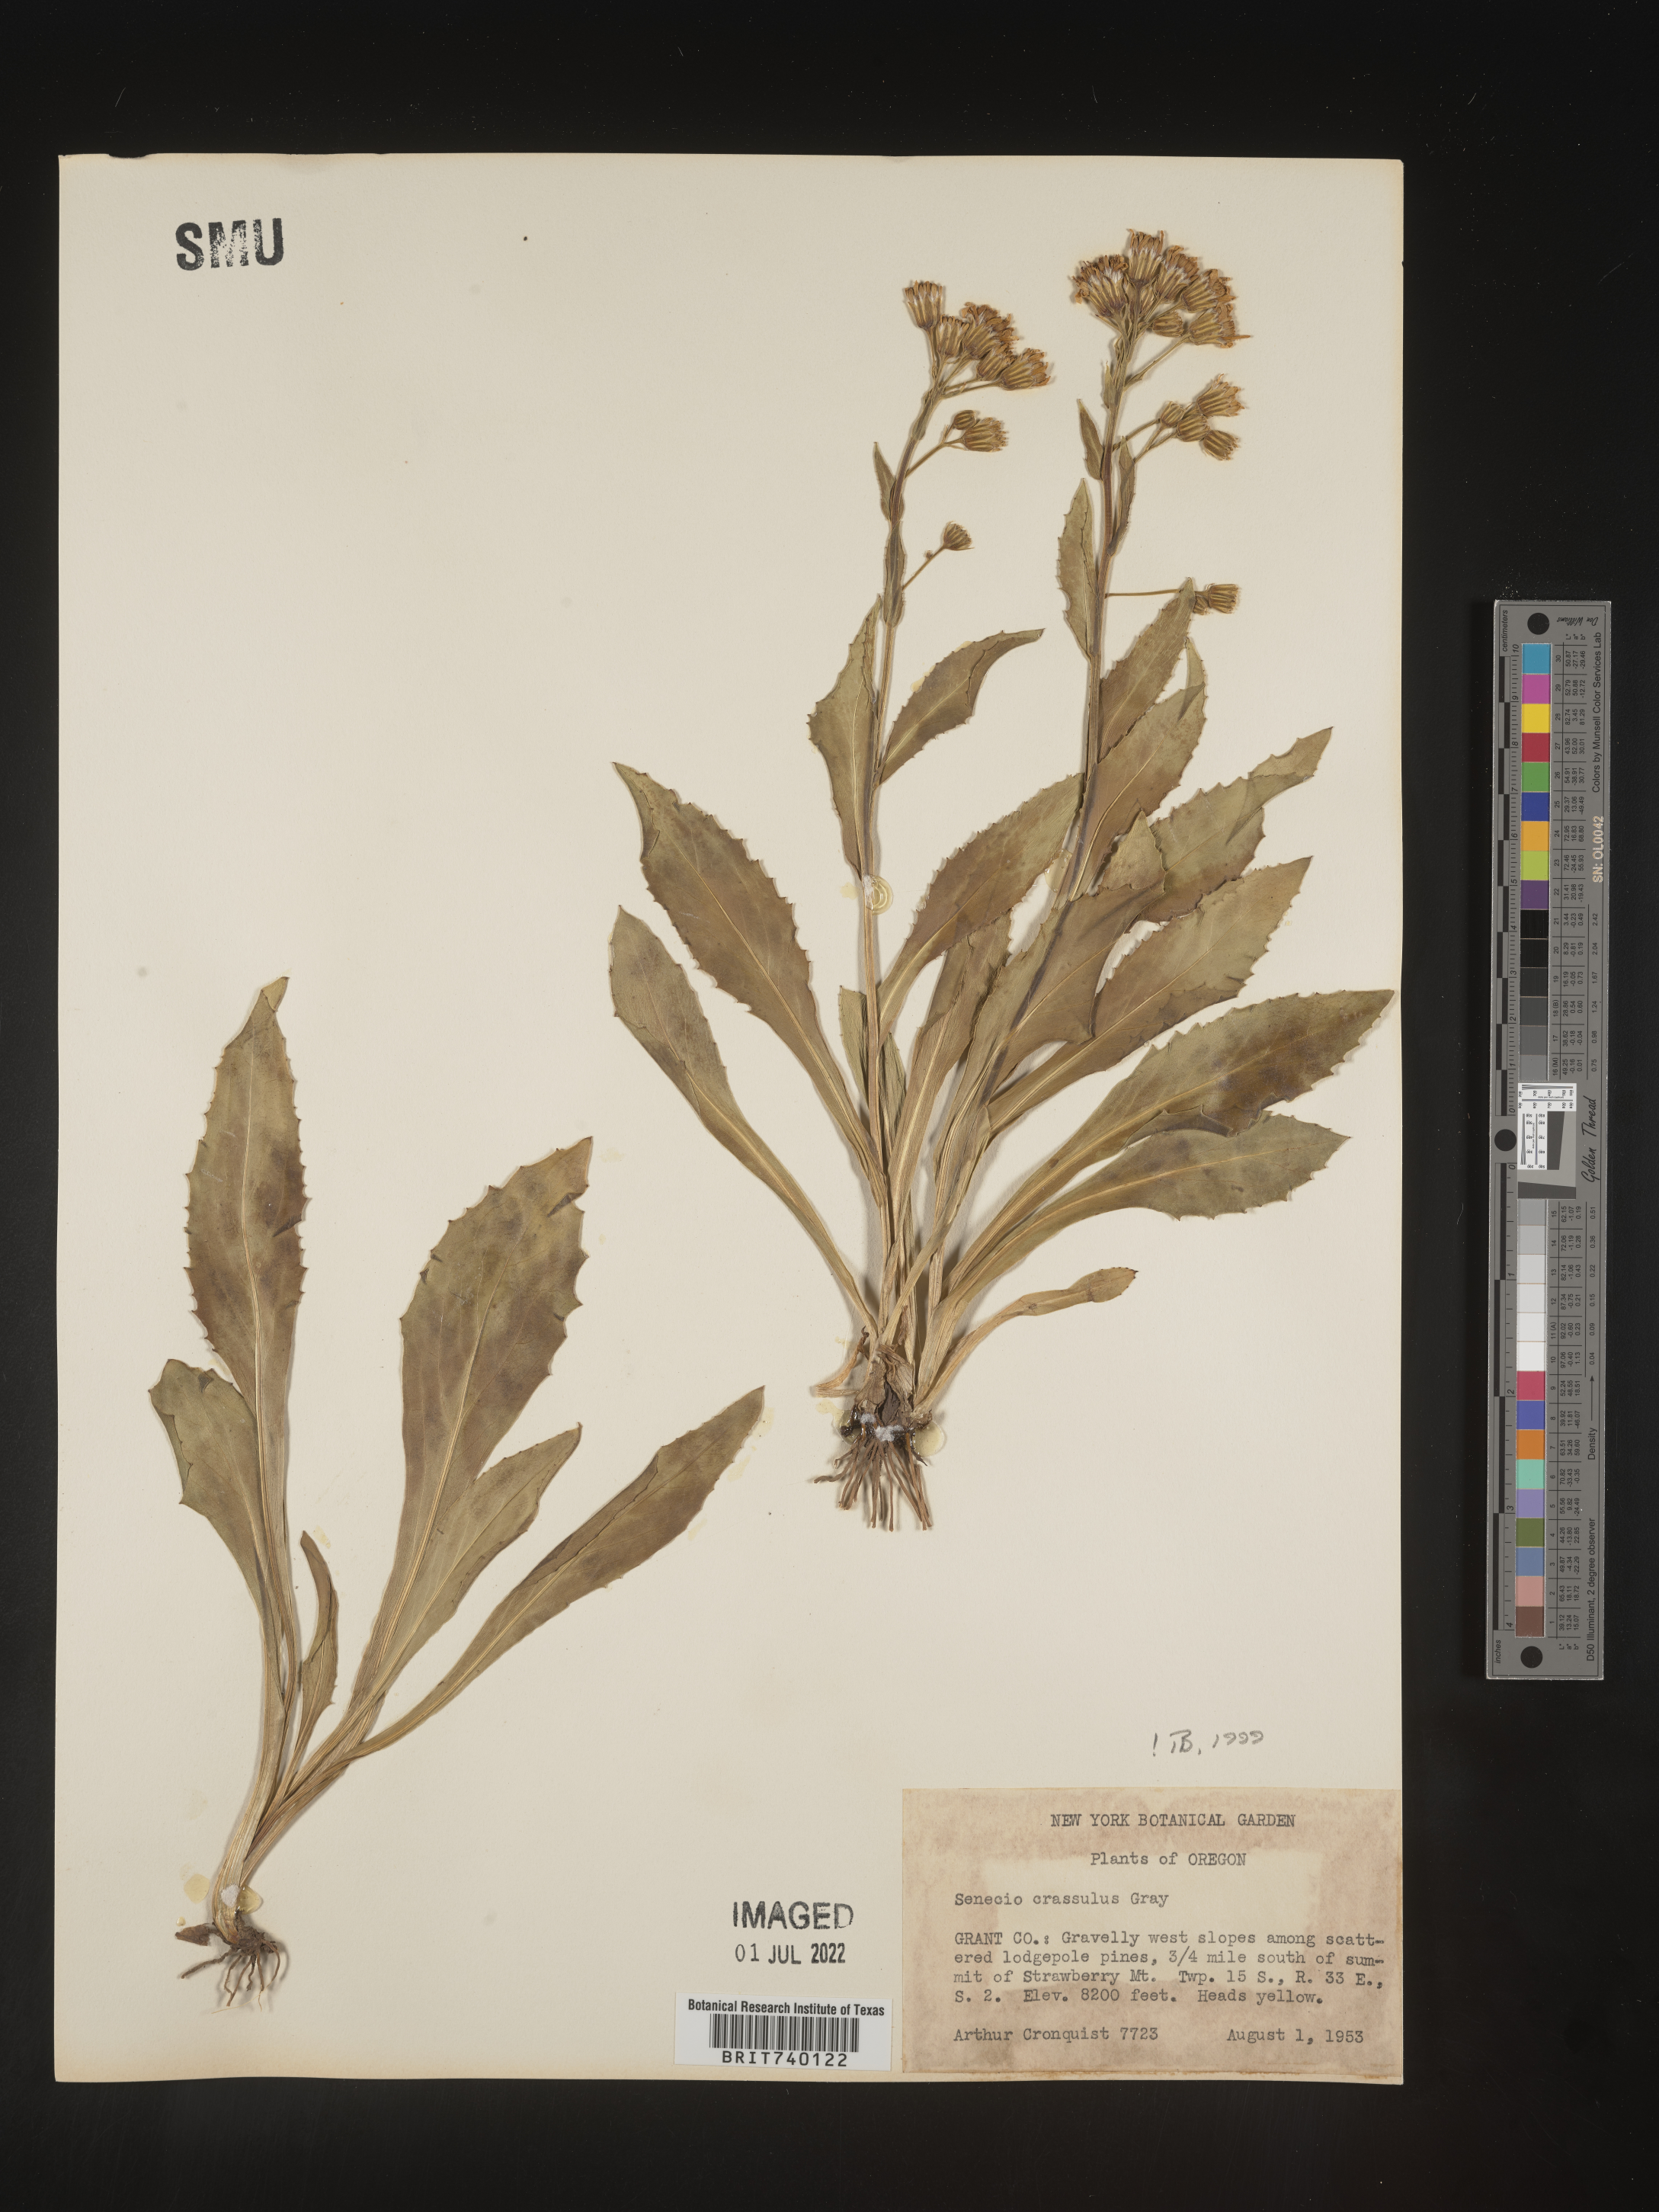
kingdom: Plantae
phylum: Tracheophyta
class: Magnoliopsida
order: Asterales
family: Asteraceae
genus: Senecio
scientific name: Senecio crassulus
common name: Mountain-meadow butterweed
